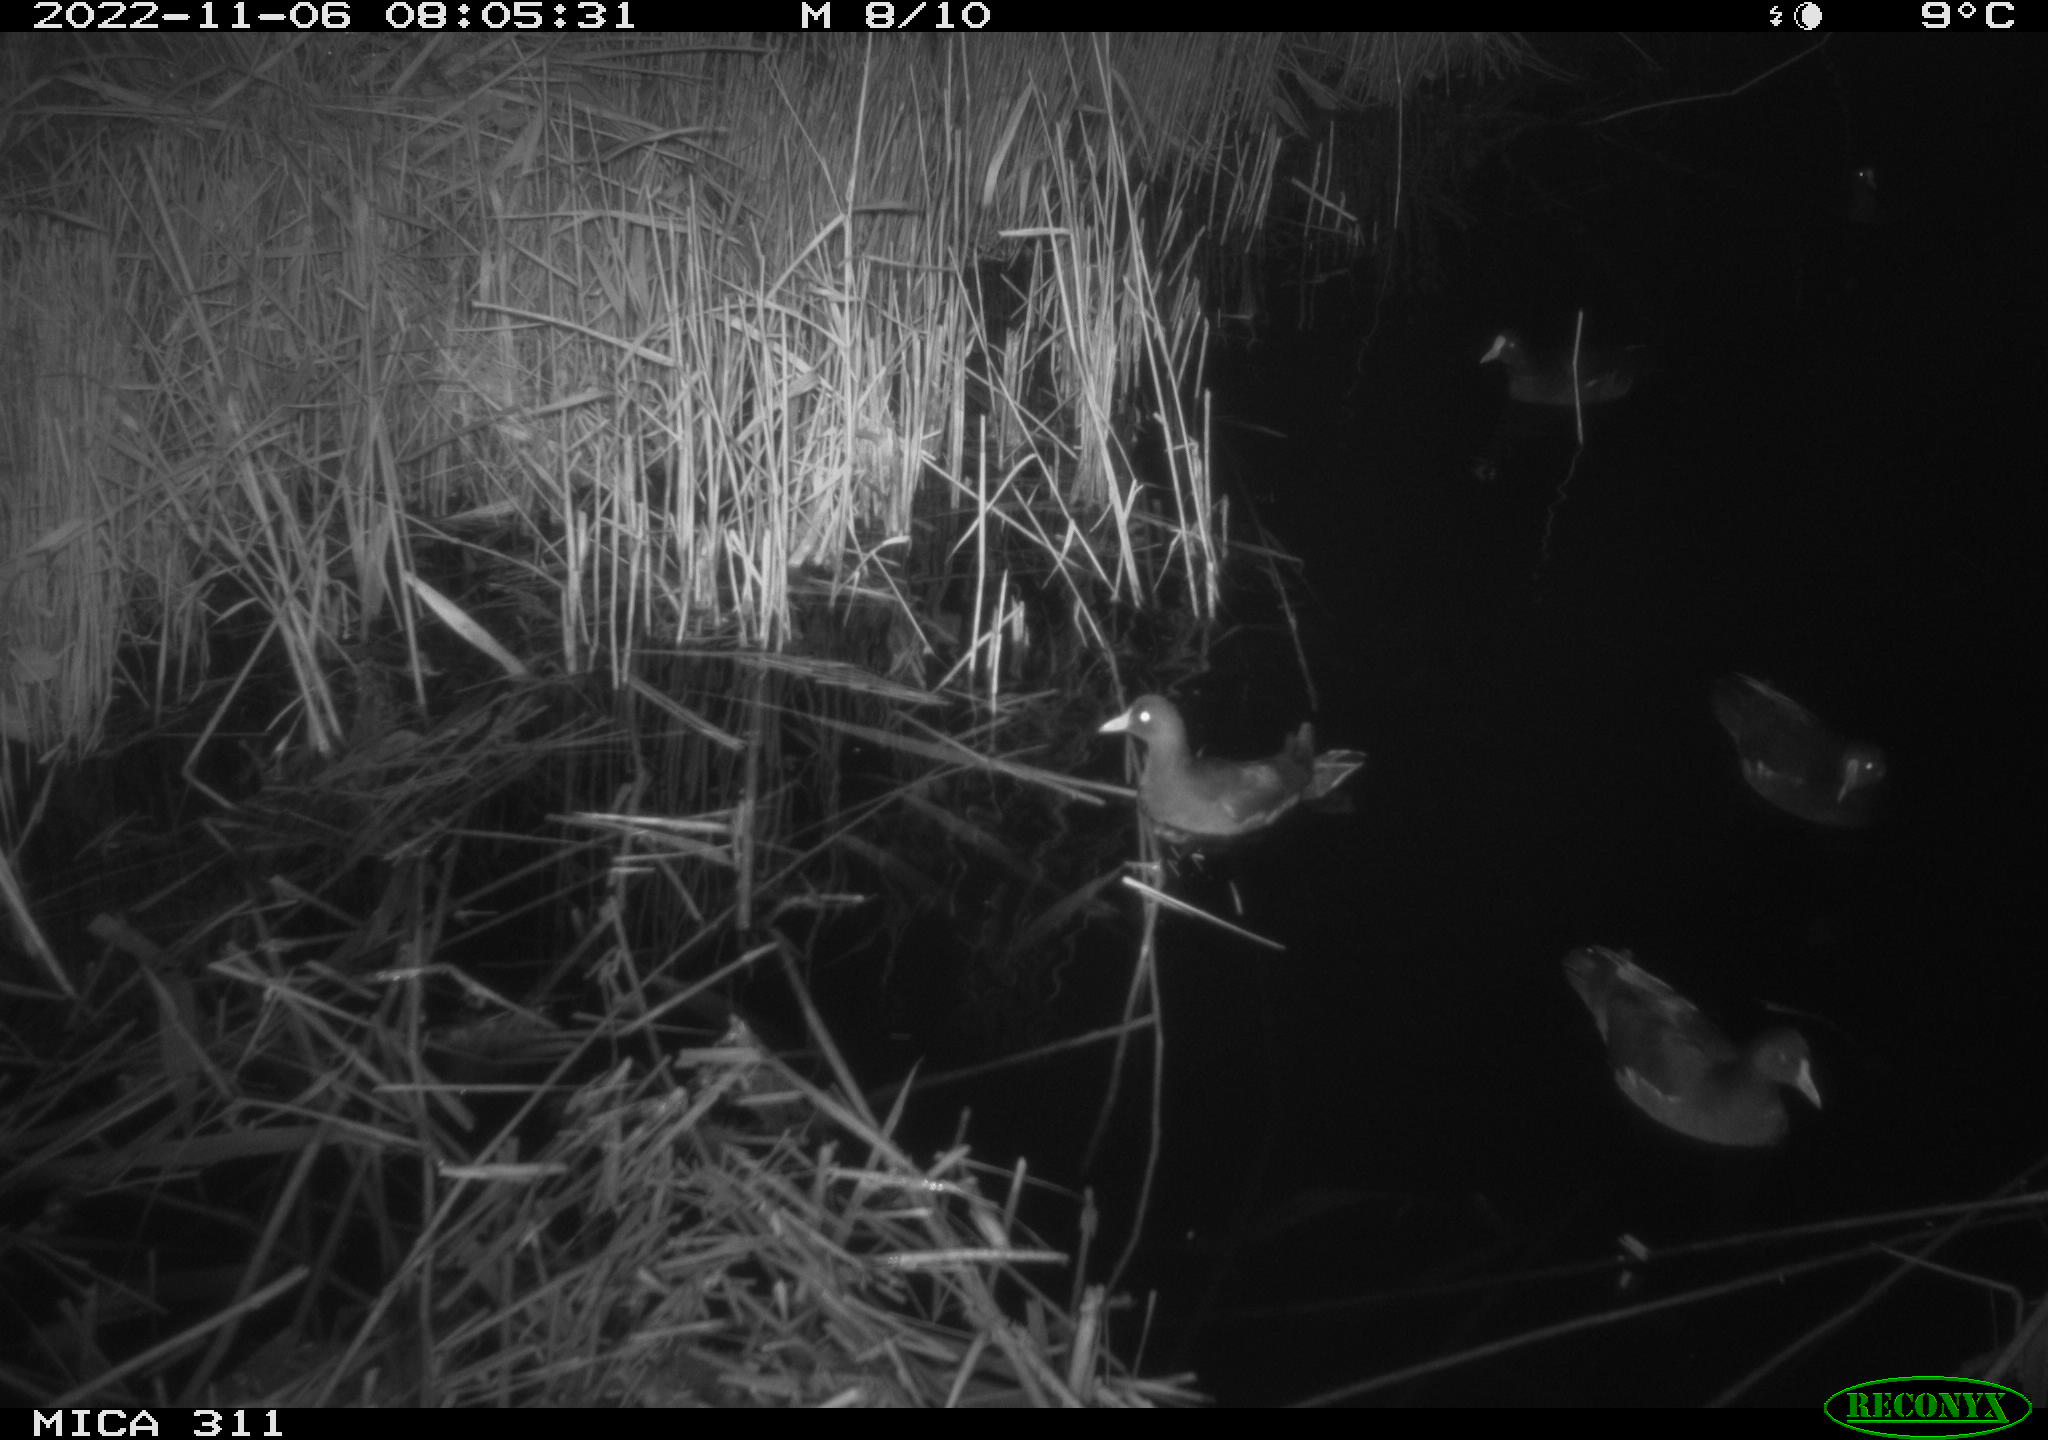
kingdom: Animalia
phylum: Chordata
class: Aves
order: Anseriformes
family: Anatidae
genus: Anas
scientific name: Anas
